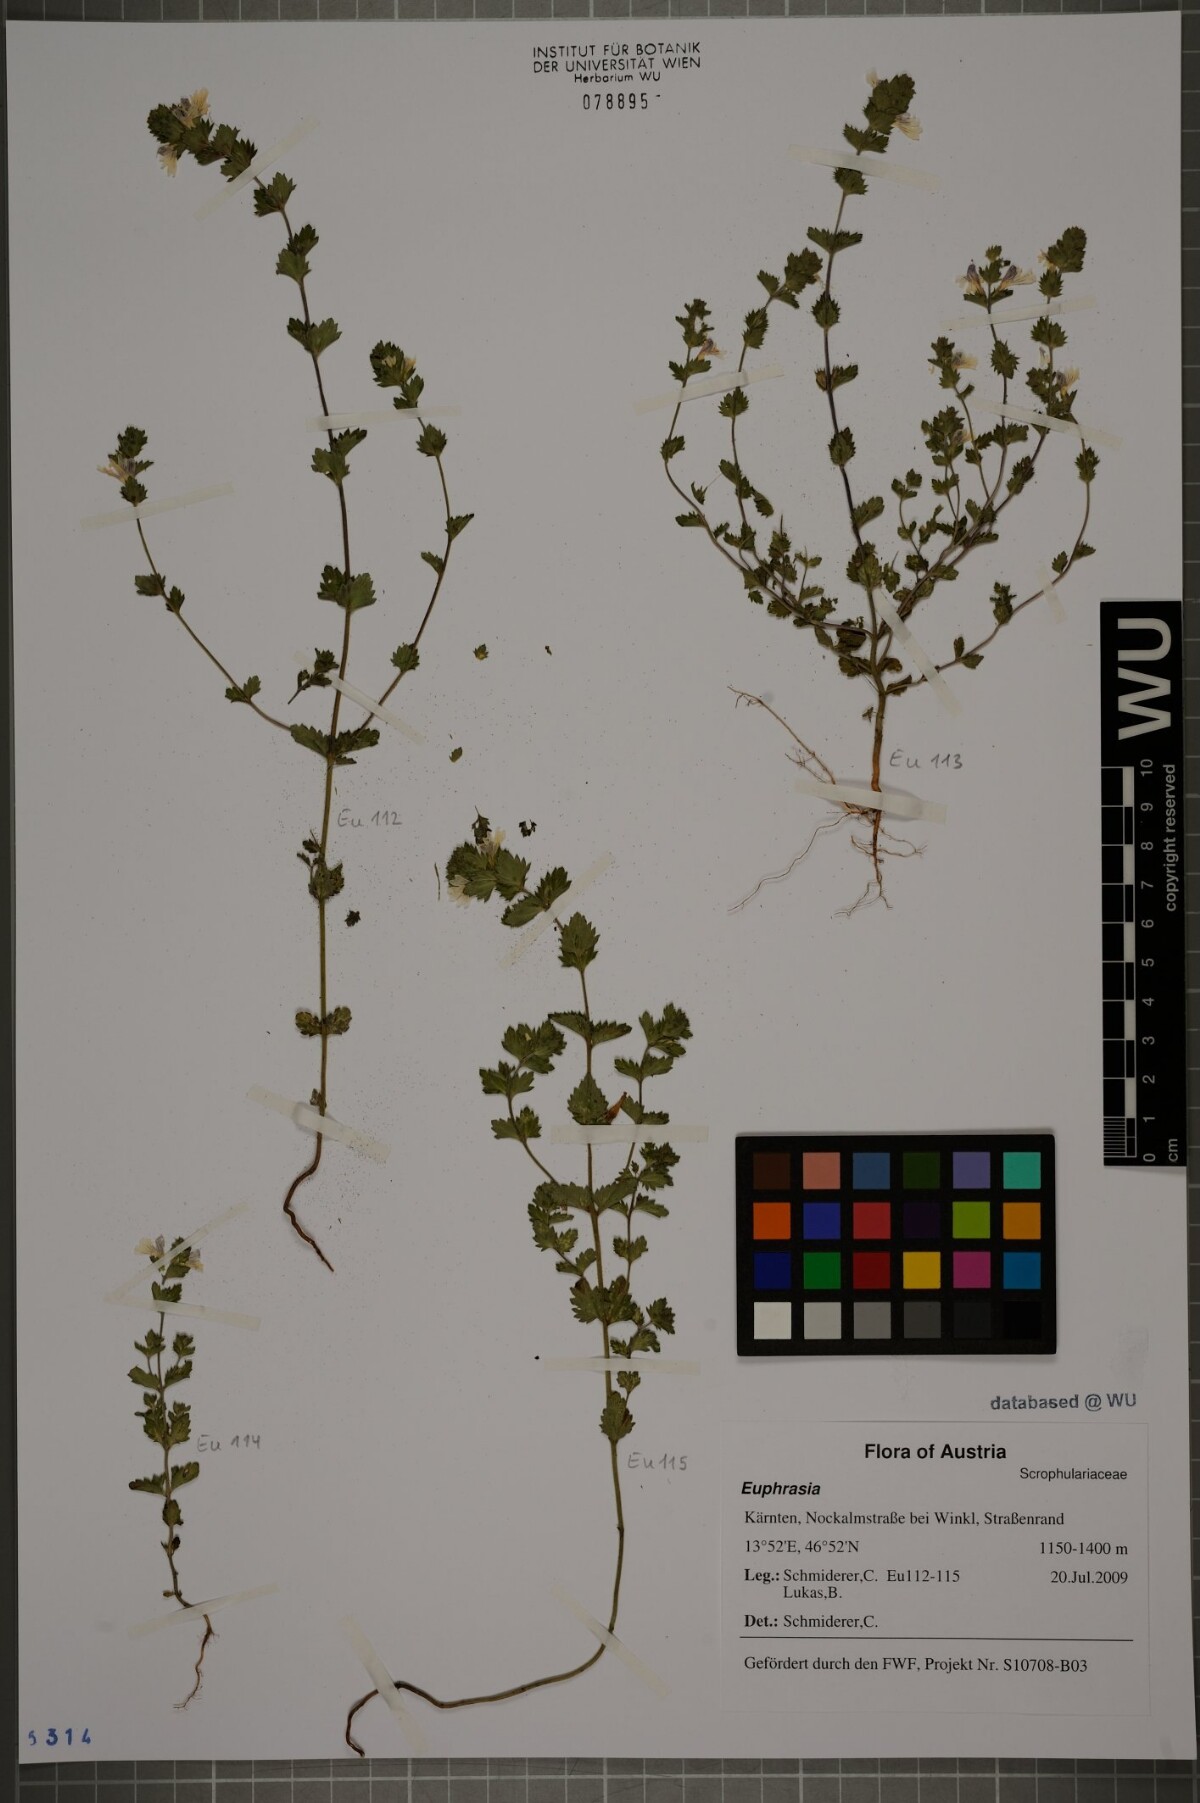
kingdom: Plantae
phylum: Tracheophyta
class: Magnoliopsida
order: Lamiales
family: Orobanchaceae
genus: Euphrasia
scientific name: Euphrasia
